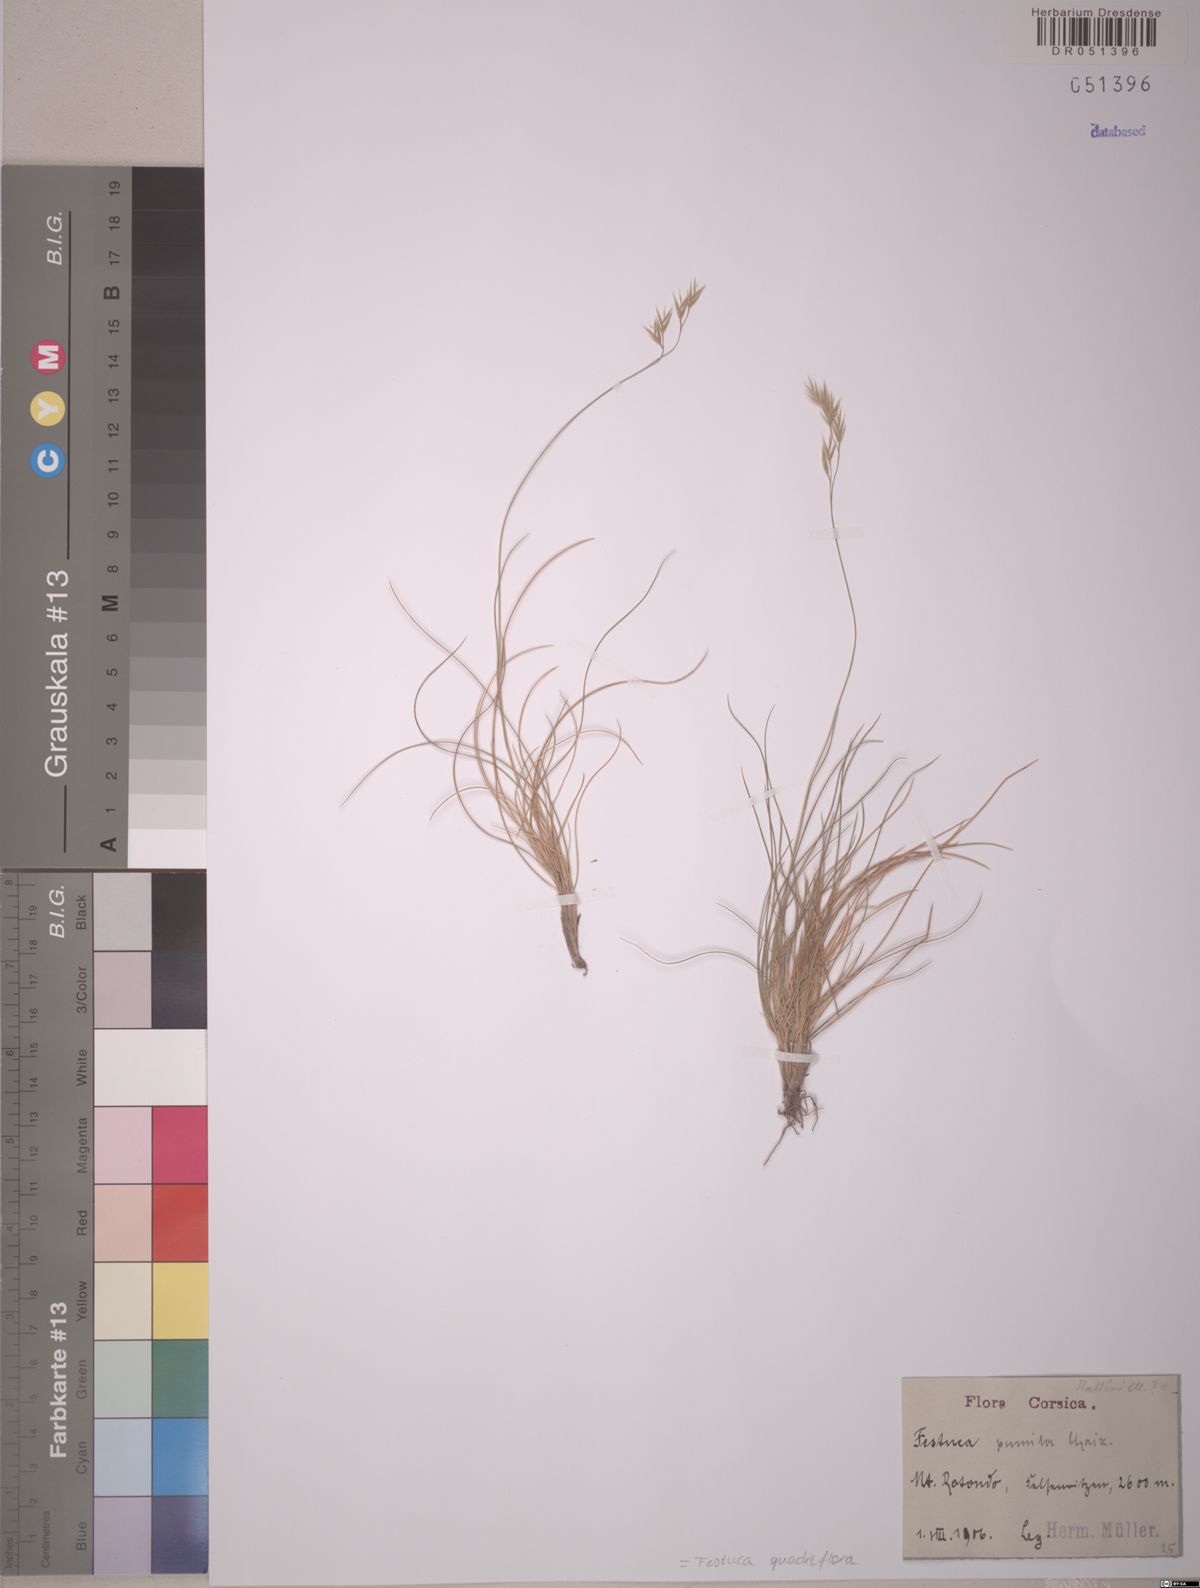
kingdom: Plantae
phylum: Tracheophyta
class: Liliopsida
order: Poales
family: Poaceae
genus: Festuca
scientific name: Festuca quadriflora
